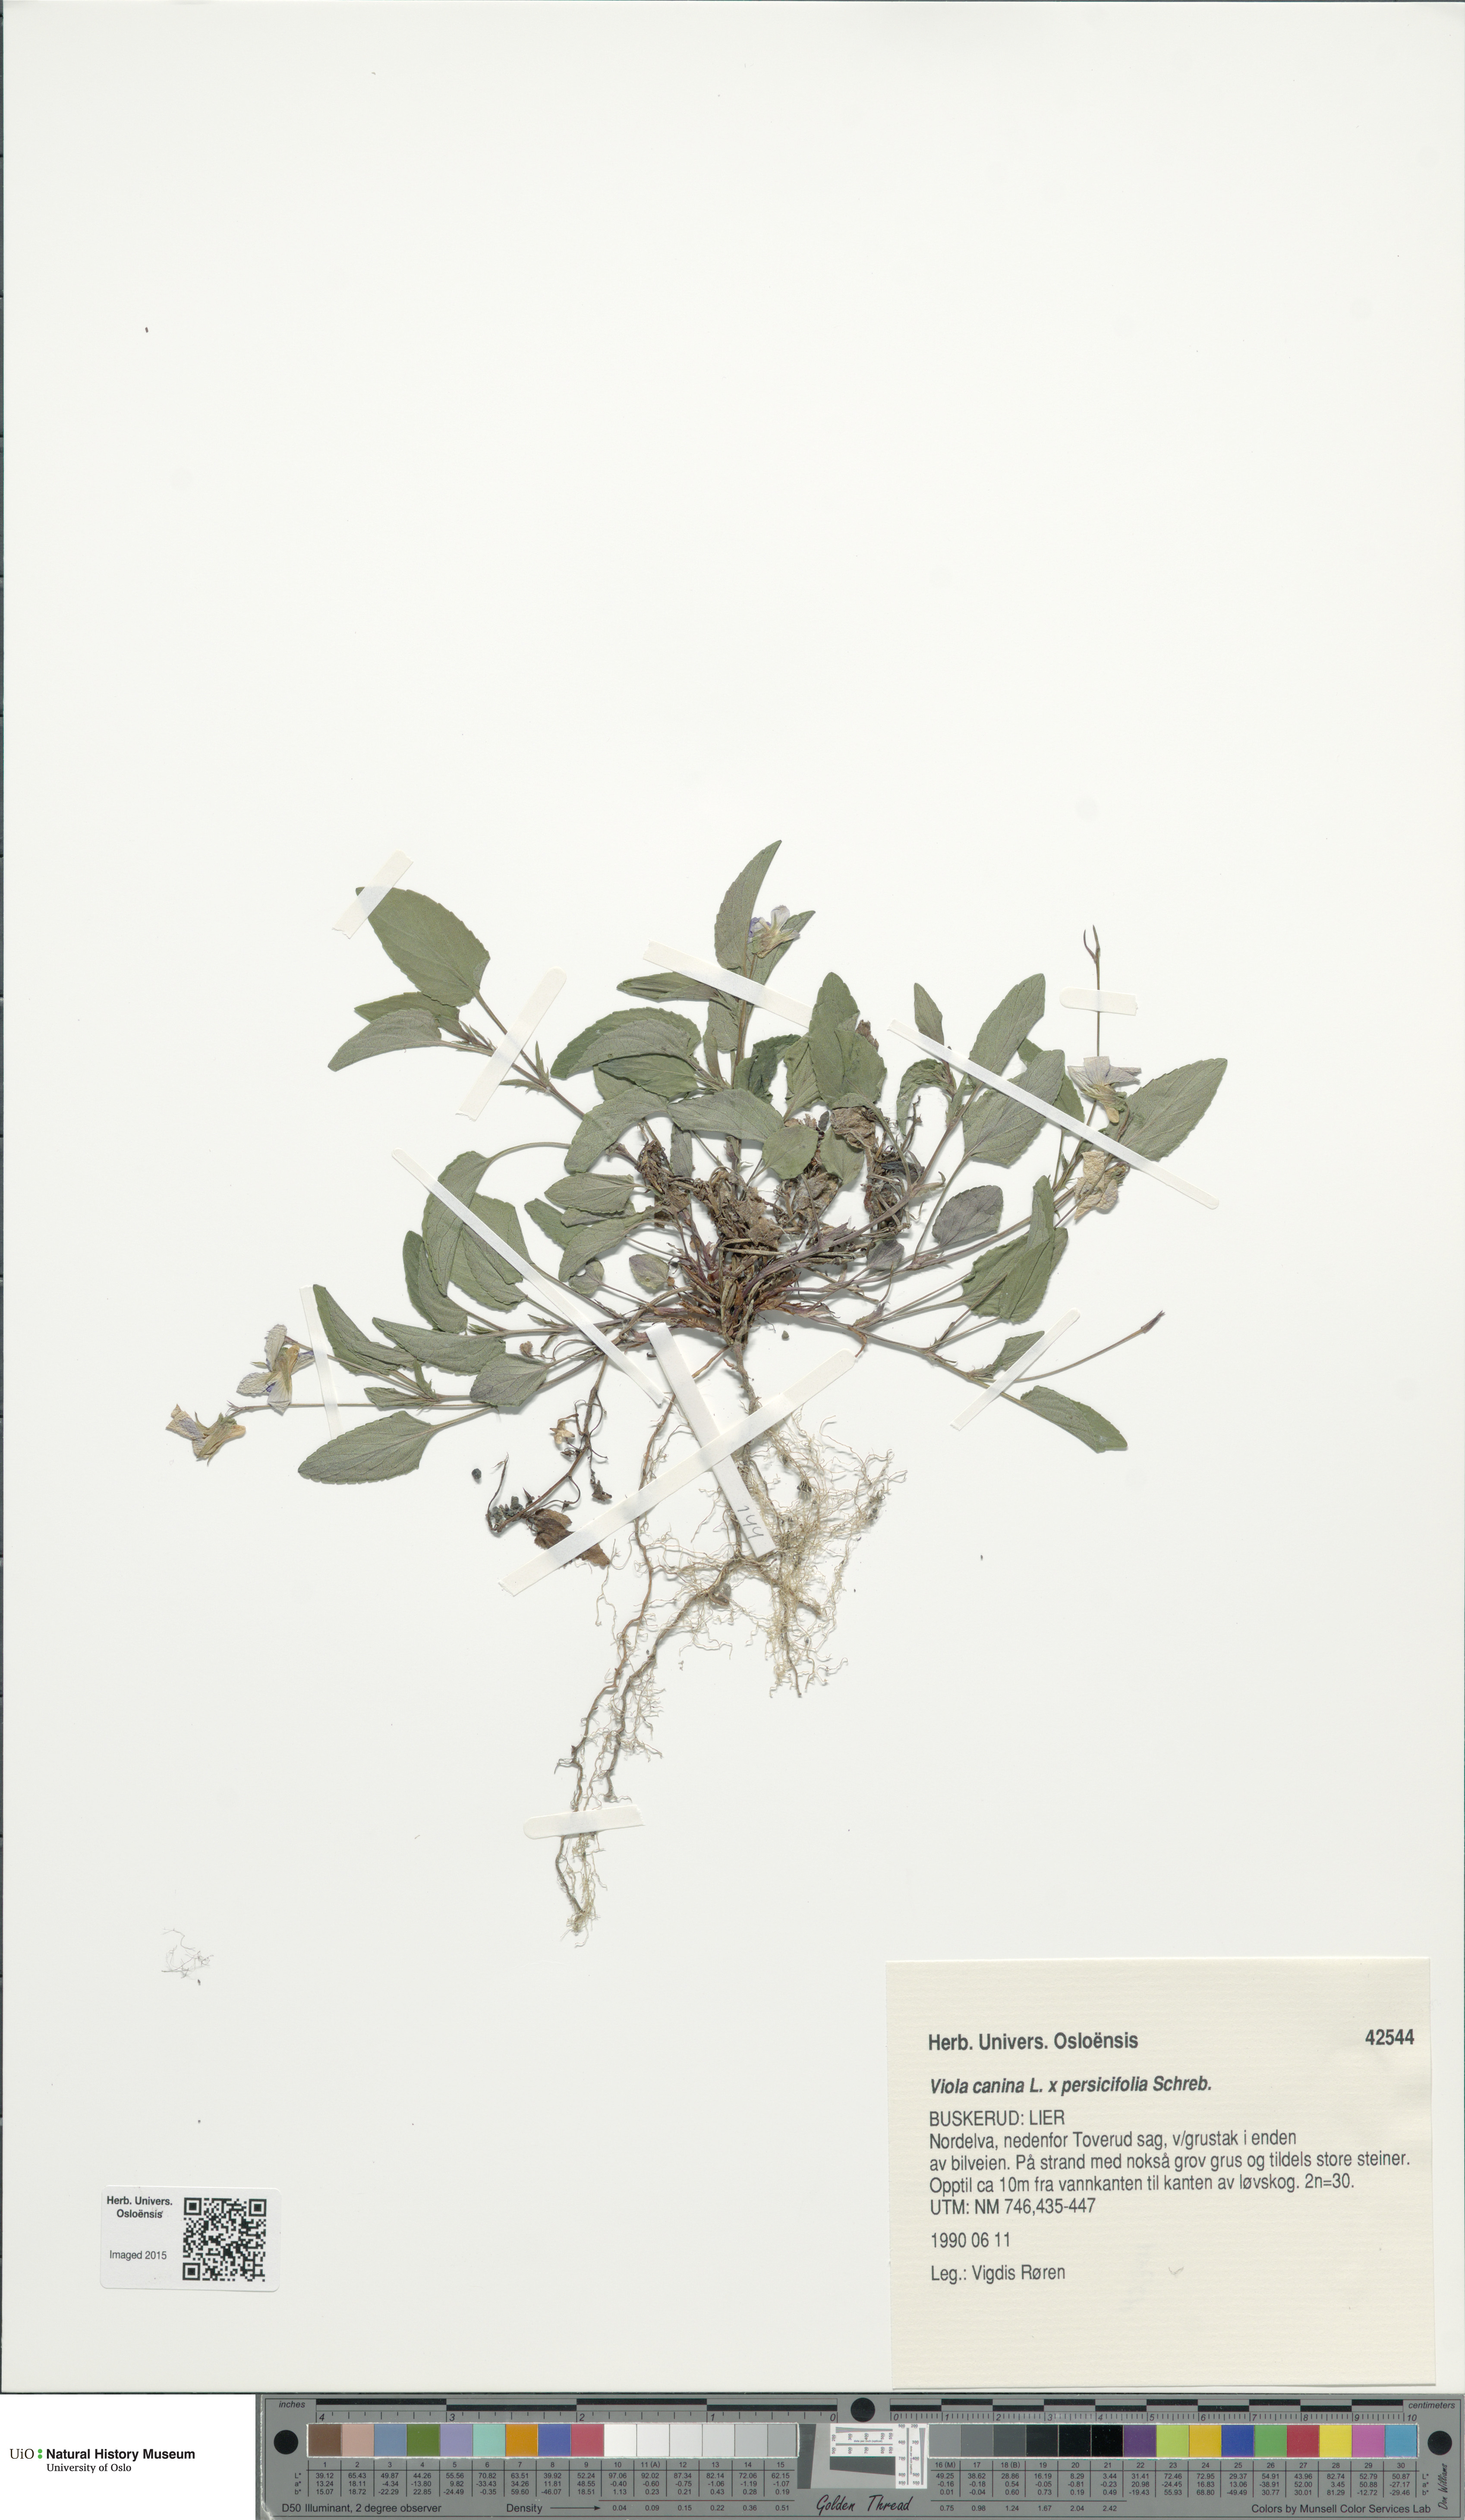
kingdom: Plantae
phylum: Tracheophyta
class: Magnoliopsida
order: Malpighiales
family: Violaceae
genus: Viola
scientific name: Viola
